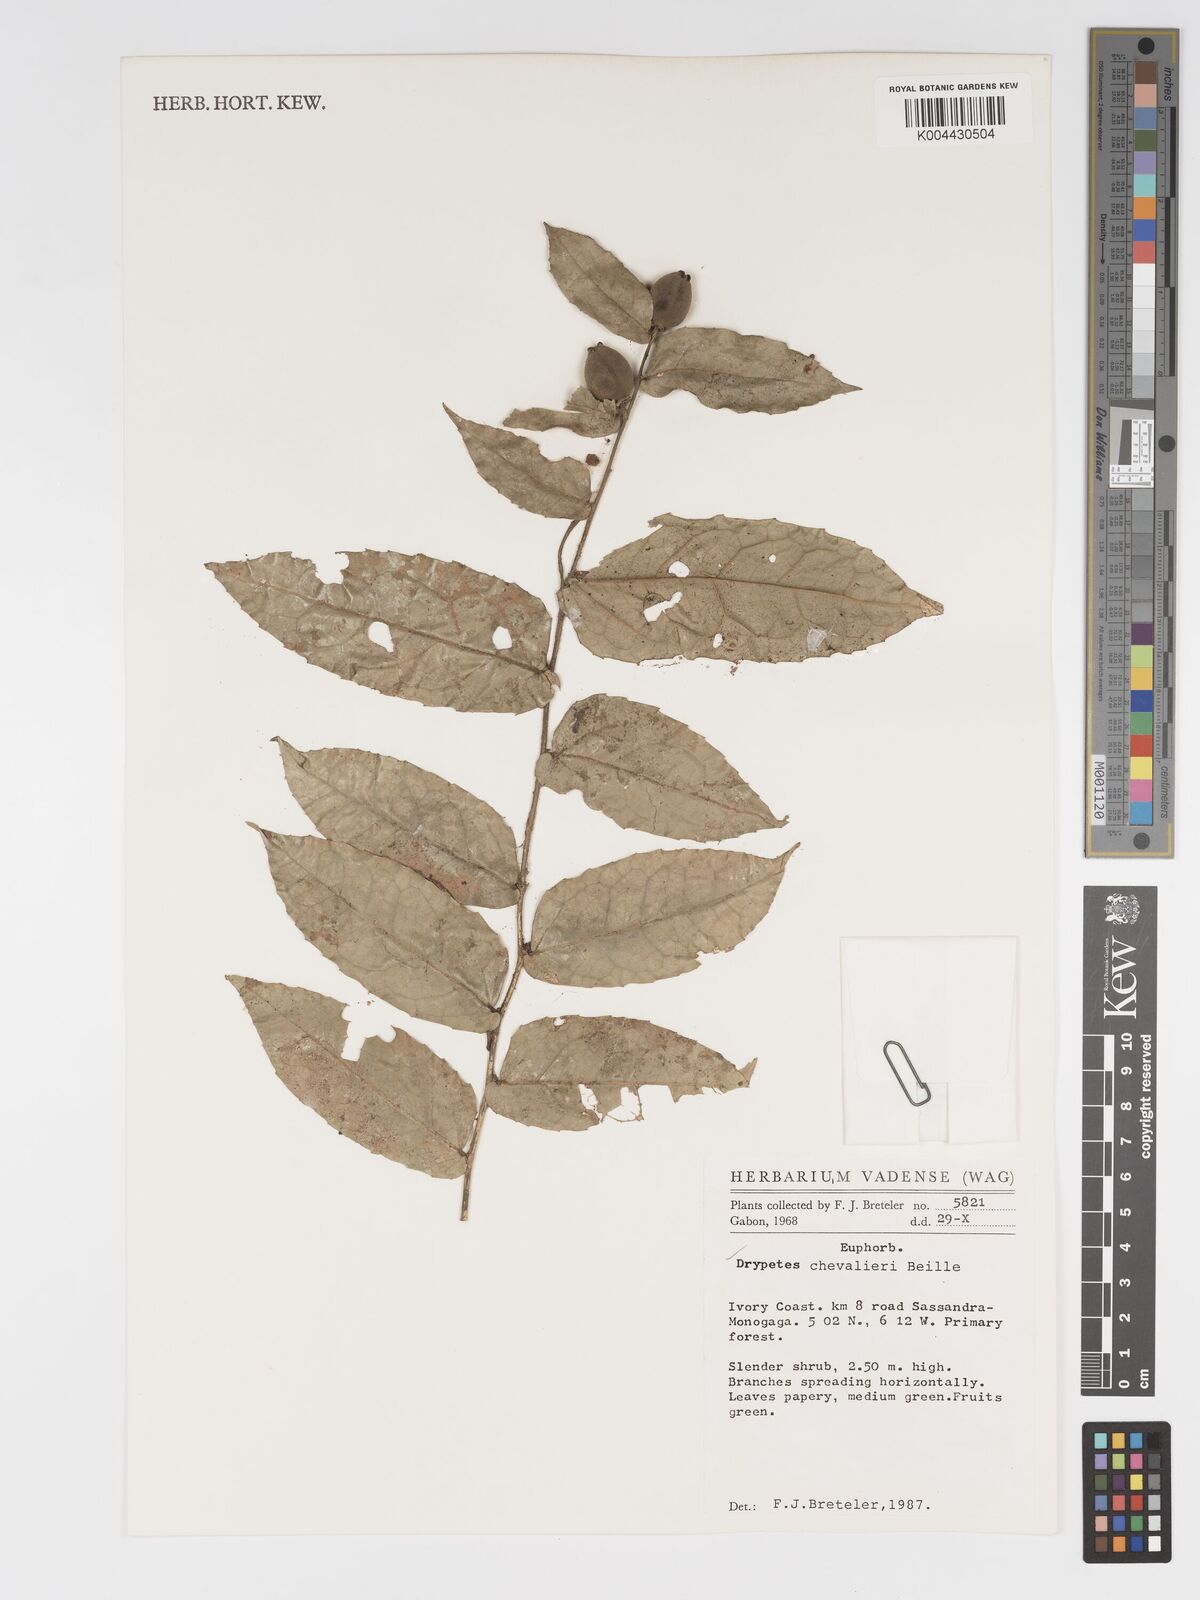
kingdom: Plantae
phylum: Tracheophyta
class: Magnoliopsida
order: Malpighiales
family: Putranjivaceae
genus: Drypetes
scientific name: Drypetes chevalieri
